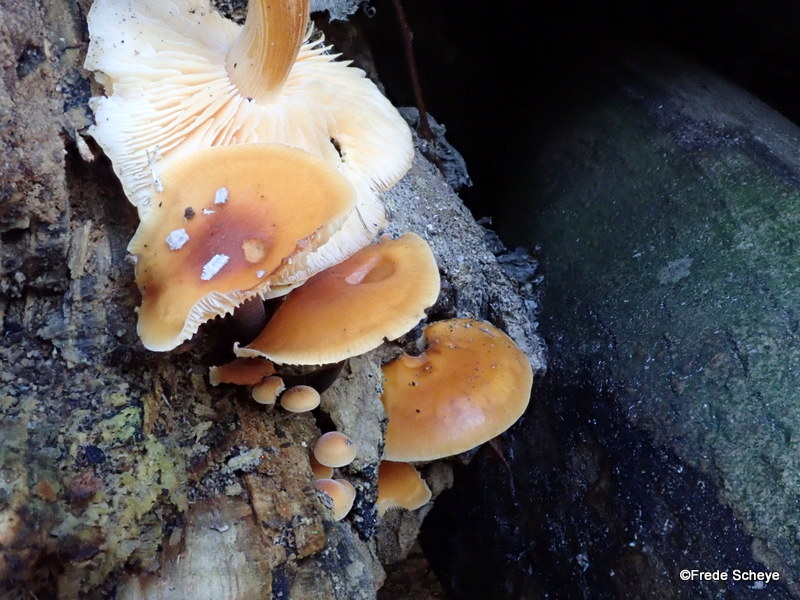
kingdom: Fungi
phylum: Basidiomycota
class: Agaricomycetes
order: Agaricales
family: Physalacriaceae
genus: Flammulina
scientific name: Flammulina velutipes
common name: gul fløjlsfod
